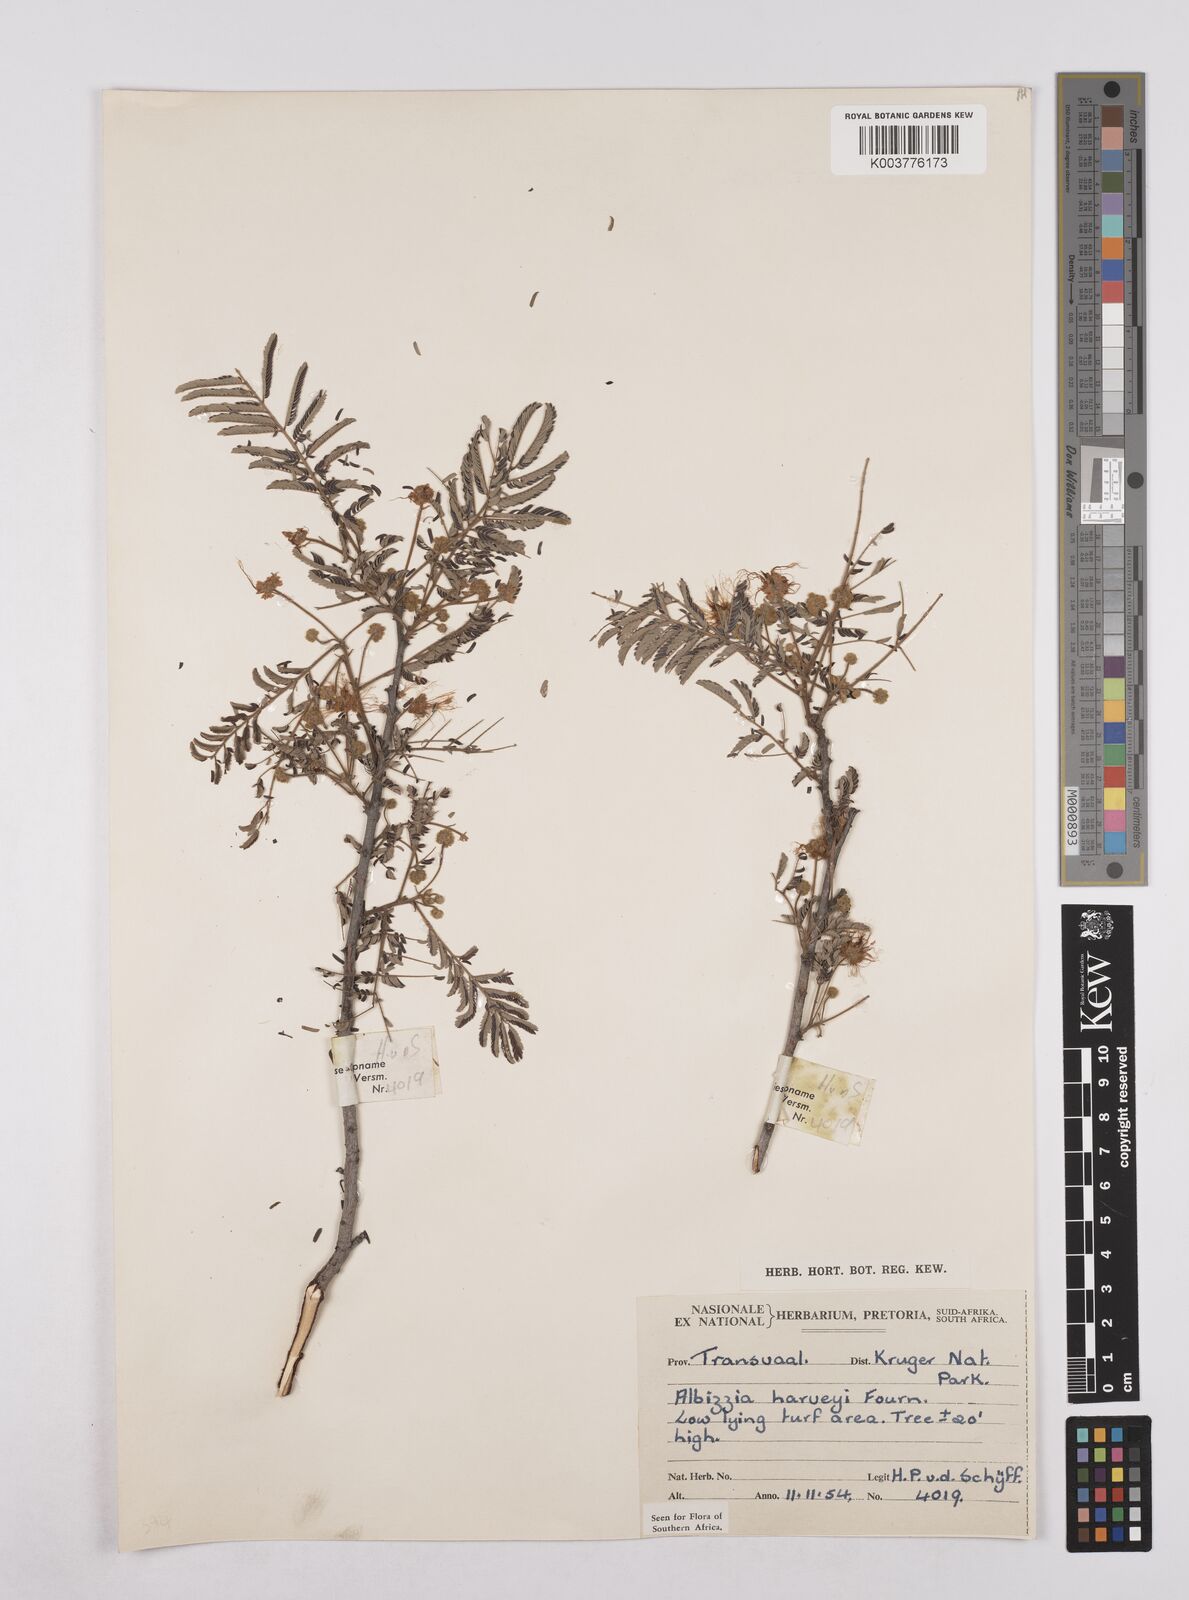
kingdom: Plantae
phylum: Tracheophyta
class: Magnoliopsida
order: Fabales
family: Fabaceae
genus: Albizia
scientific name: Albizia harveyi
